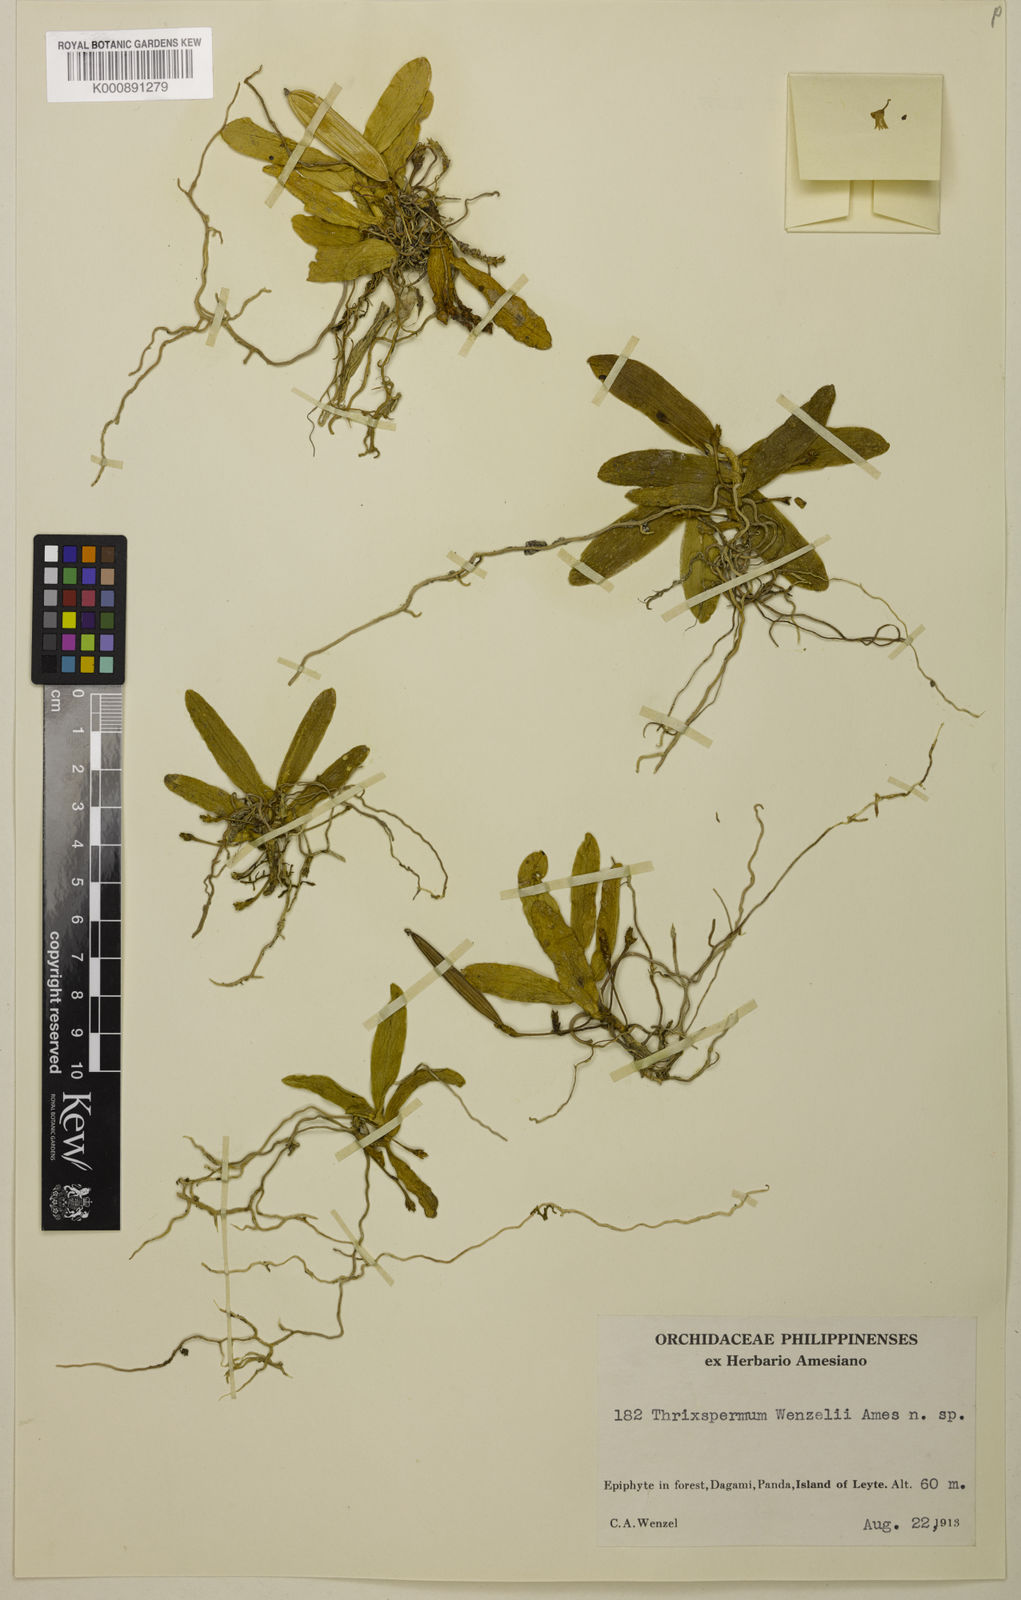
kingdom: Plantae
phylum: Tracheophyta
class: Liliopsida
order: Asparagales
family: Orchidaceae
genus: Thrixspermum
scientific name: Thrixspermum wenzelii
